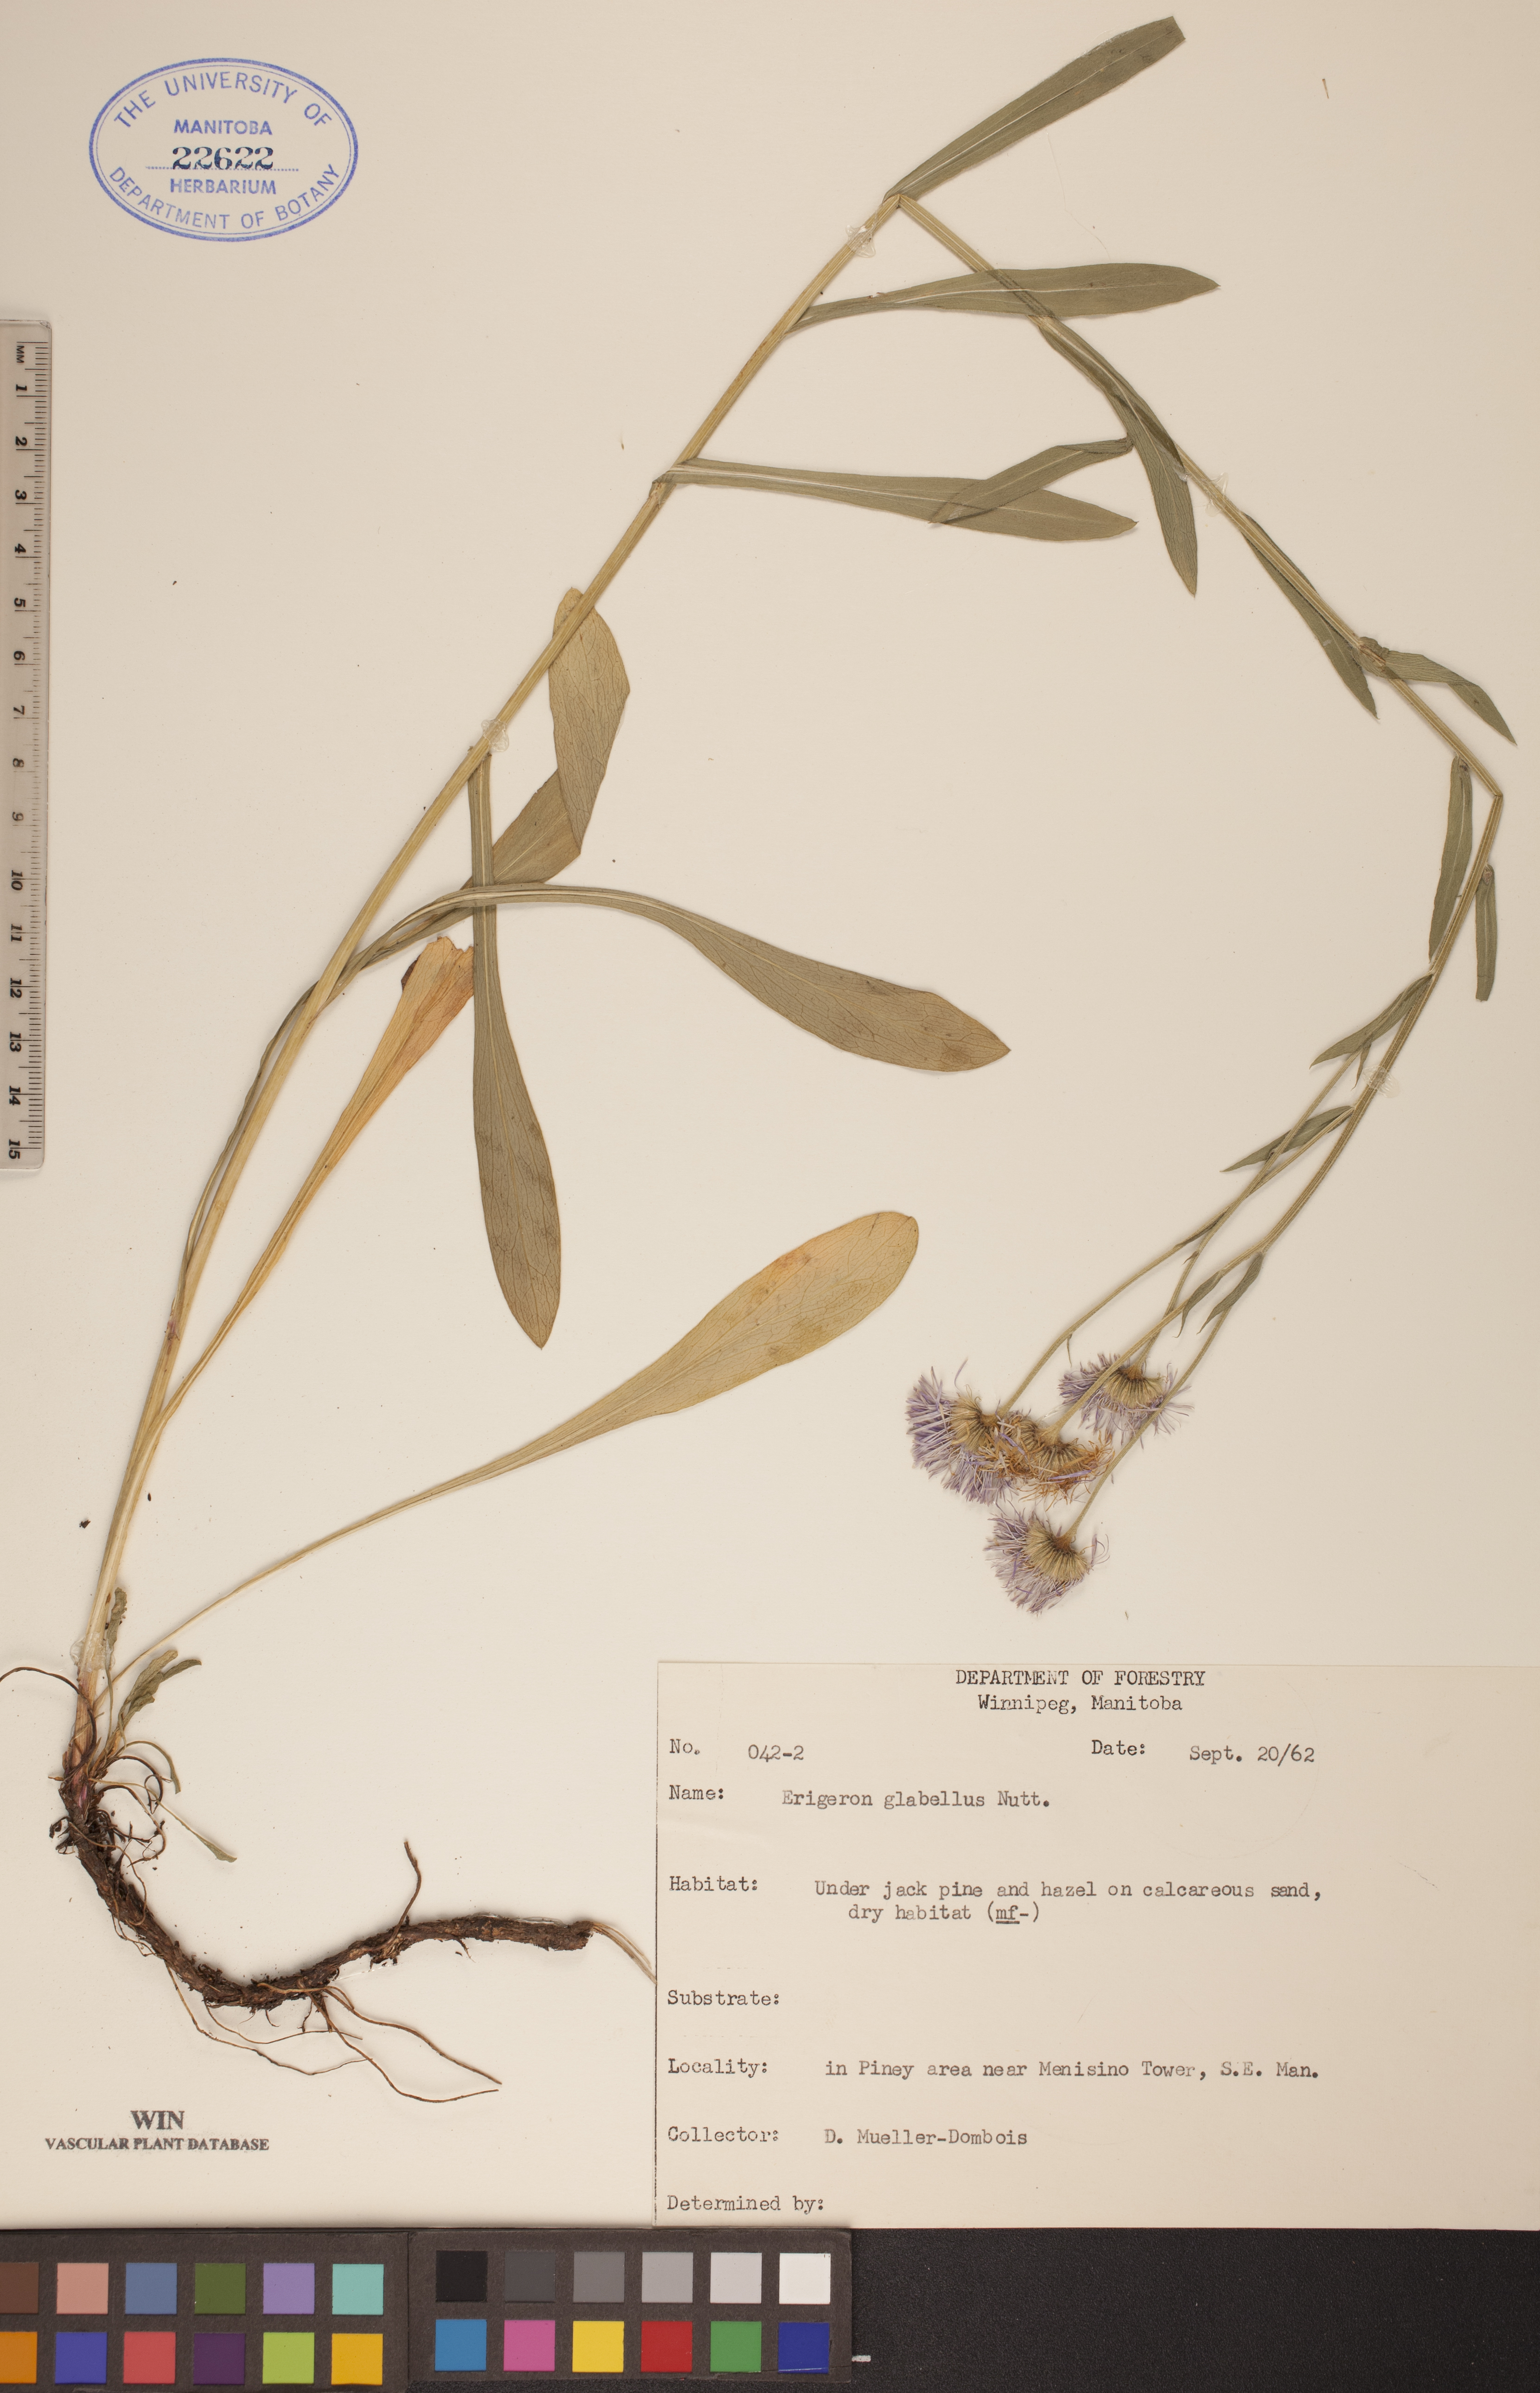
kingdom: Plantae
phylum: Tracheophyta
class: Magnoliopsida
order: Asterales
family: Asteraceae
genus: Erigeron
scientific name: Erigeron glabellus
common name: Smooth fleabane
